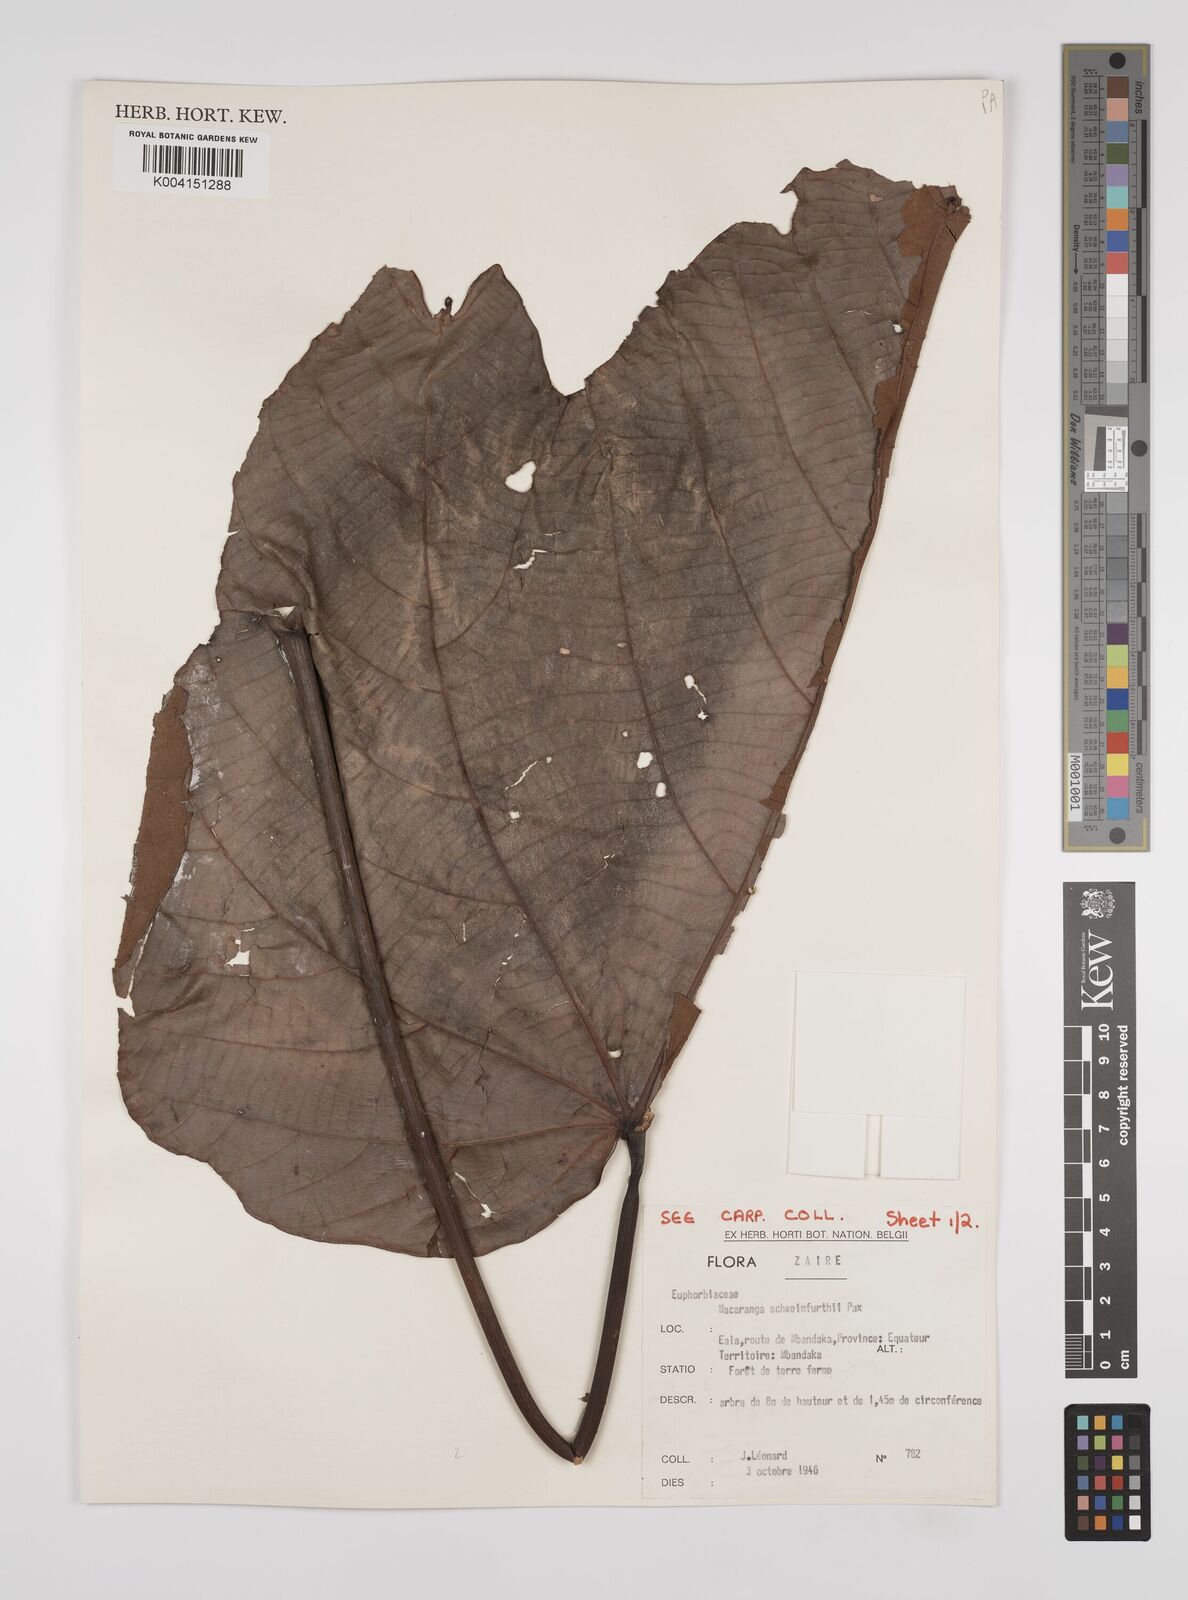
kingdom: Plantae
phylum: Tracheophyta
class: Magnoliopsida
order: Malpighiales
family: Euphorbiaceae
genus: Macaranga
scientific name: Macaranga schweinfurthii
